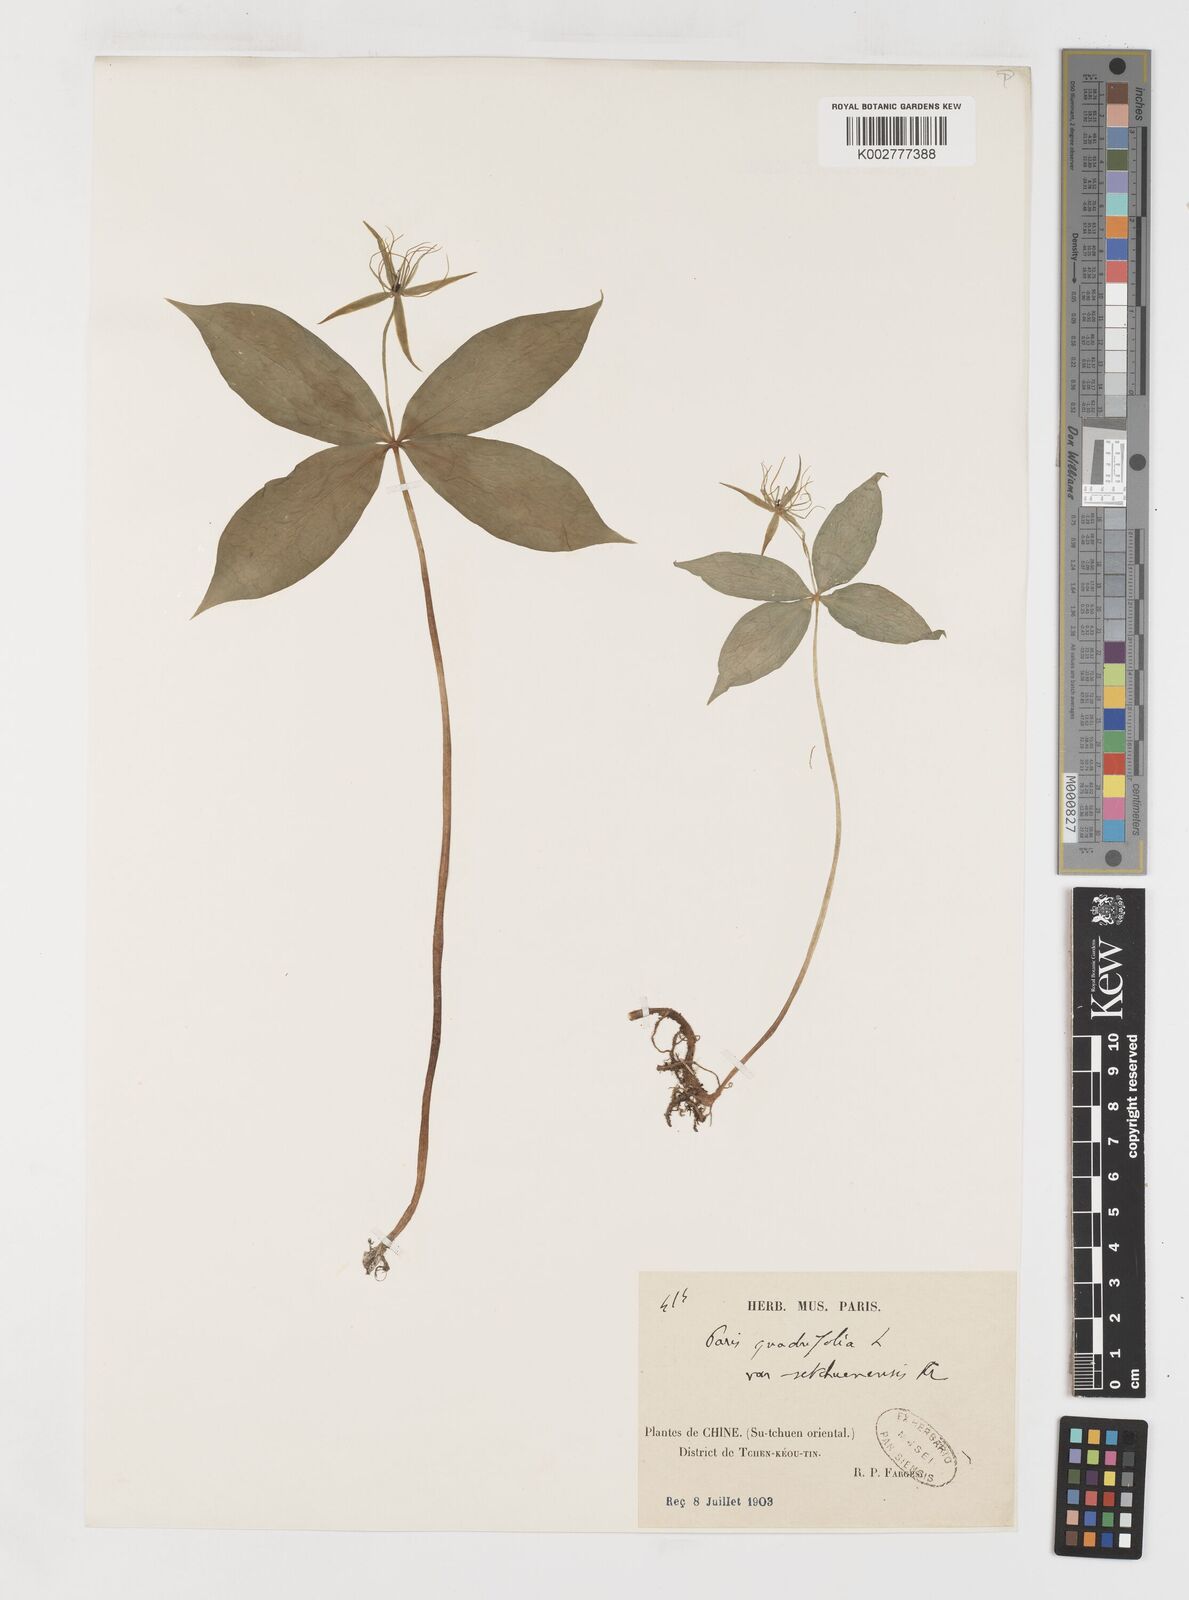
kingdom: Plantae
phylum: Tracheophyta
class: Liliopsida
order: Liliales
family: Melanthiaceae
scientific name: Melanthiaceae
